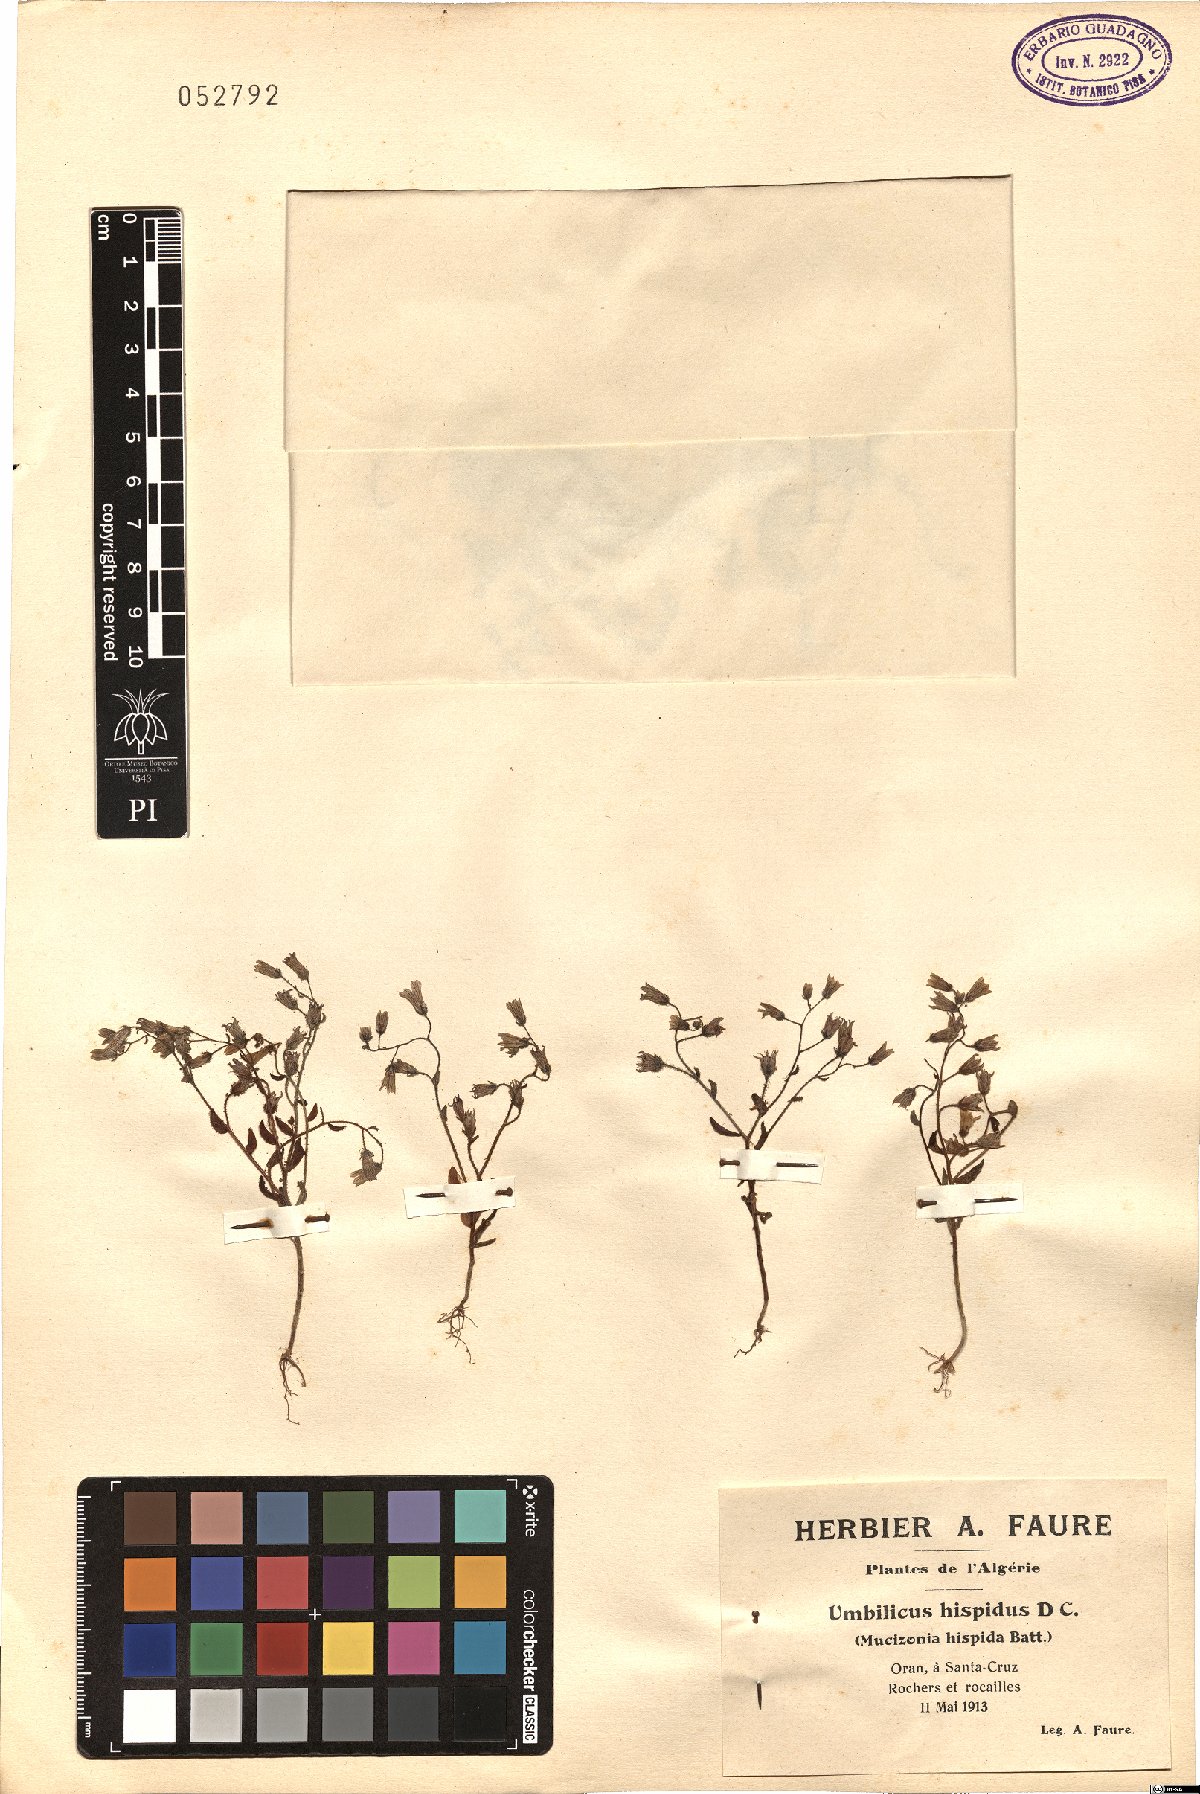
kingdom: Plantae
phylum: Tracheophyta
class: Magnoliopsida
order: Saxifragales
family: Crassulaceae
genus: Sedum
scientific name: Sedum mucizonia
